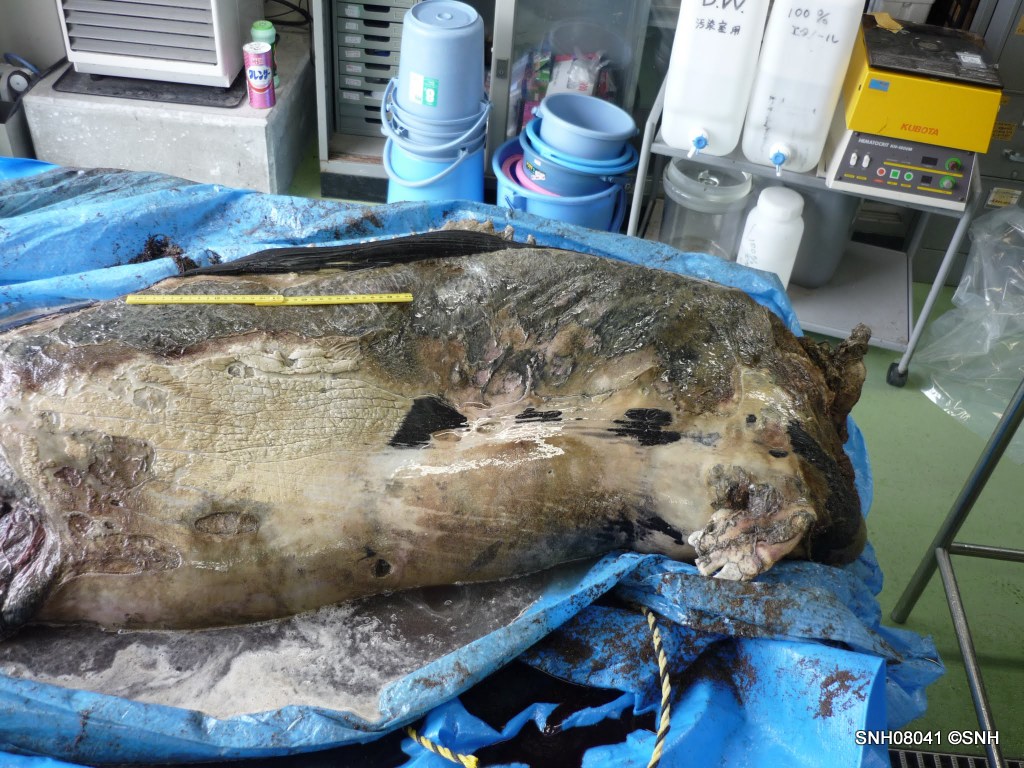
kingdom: Animalia
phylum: Chordata
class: Mammalia
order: Cetacea
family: Phocoenidae
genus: Phocoenoides
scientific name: Phocoenoides dalli
